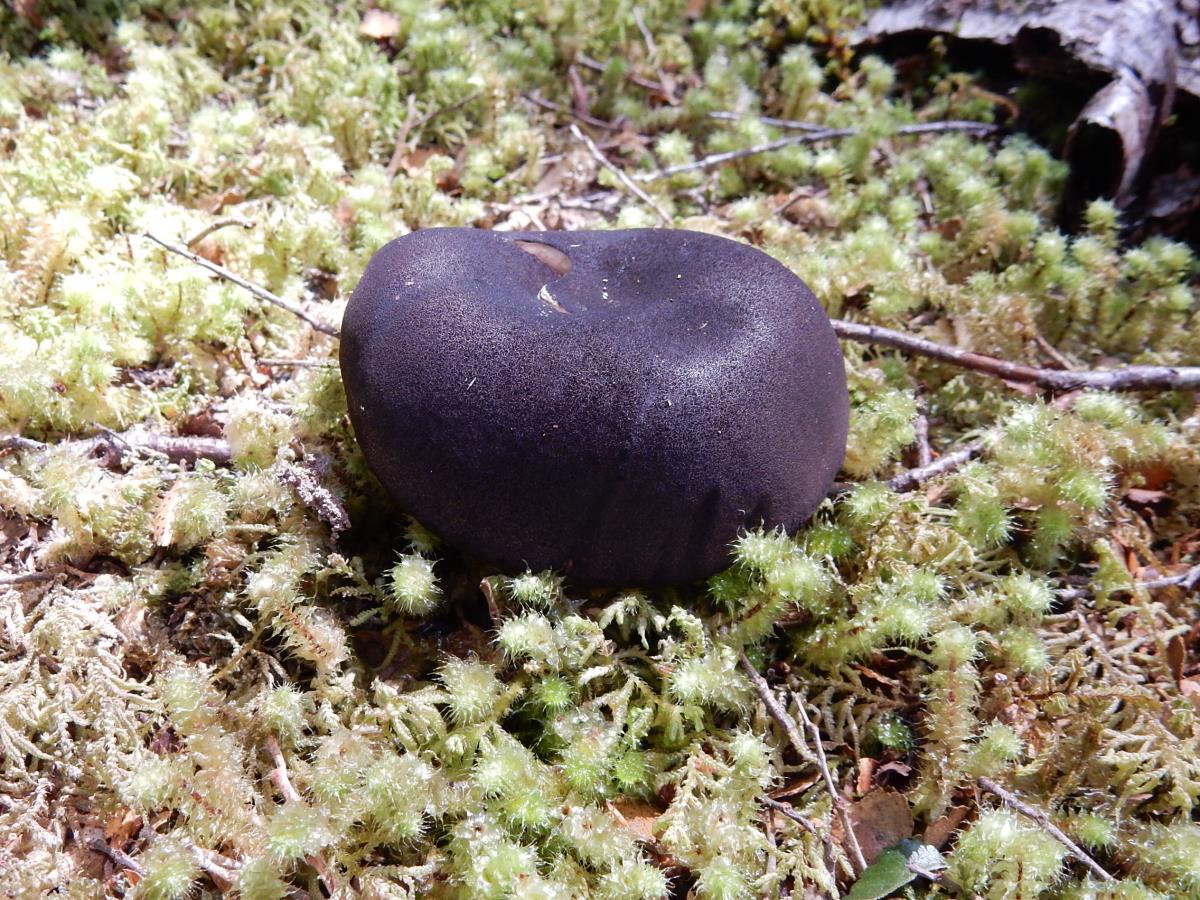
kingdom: Fungi
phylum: Basidiomycota
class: Agaricomycetes
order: Boletales
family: Boletaceae
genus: Porphyrellus
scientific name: Porphyrellus formosus
